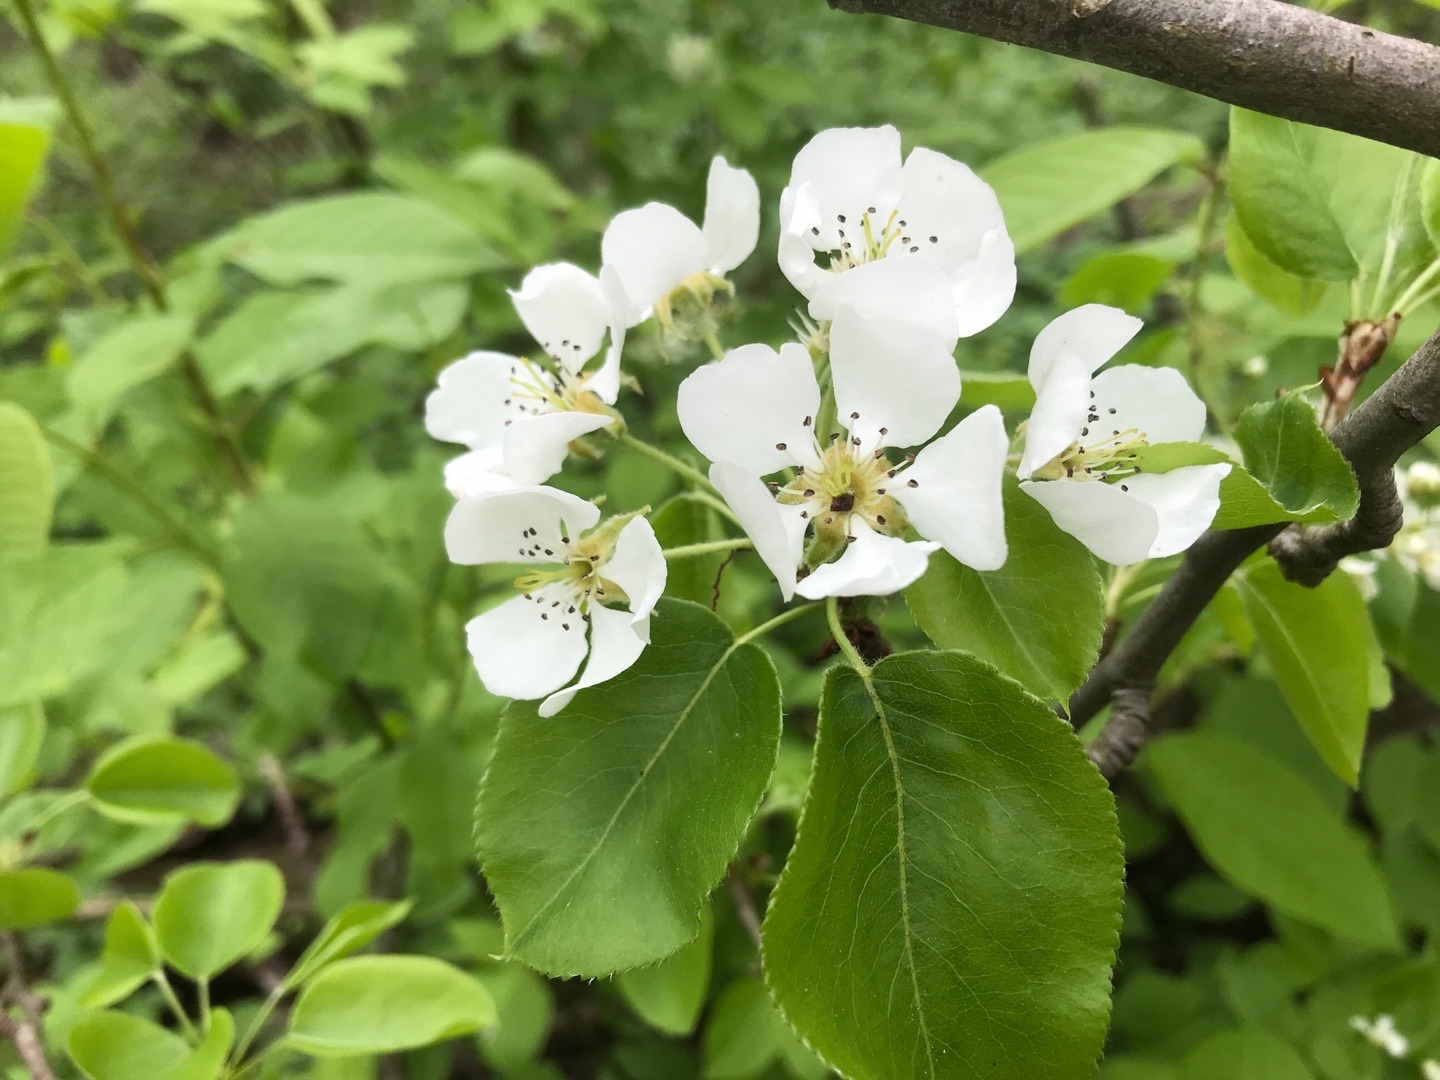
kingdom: Plantae
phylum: Tracheophyta
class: Magnoliopsida
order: Rosales
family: Rosaceae
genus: Pyrus
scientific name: Pyrus communis
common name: Pære
